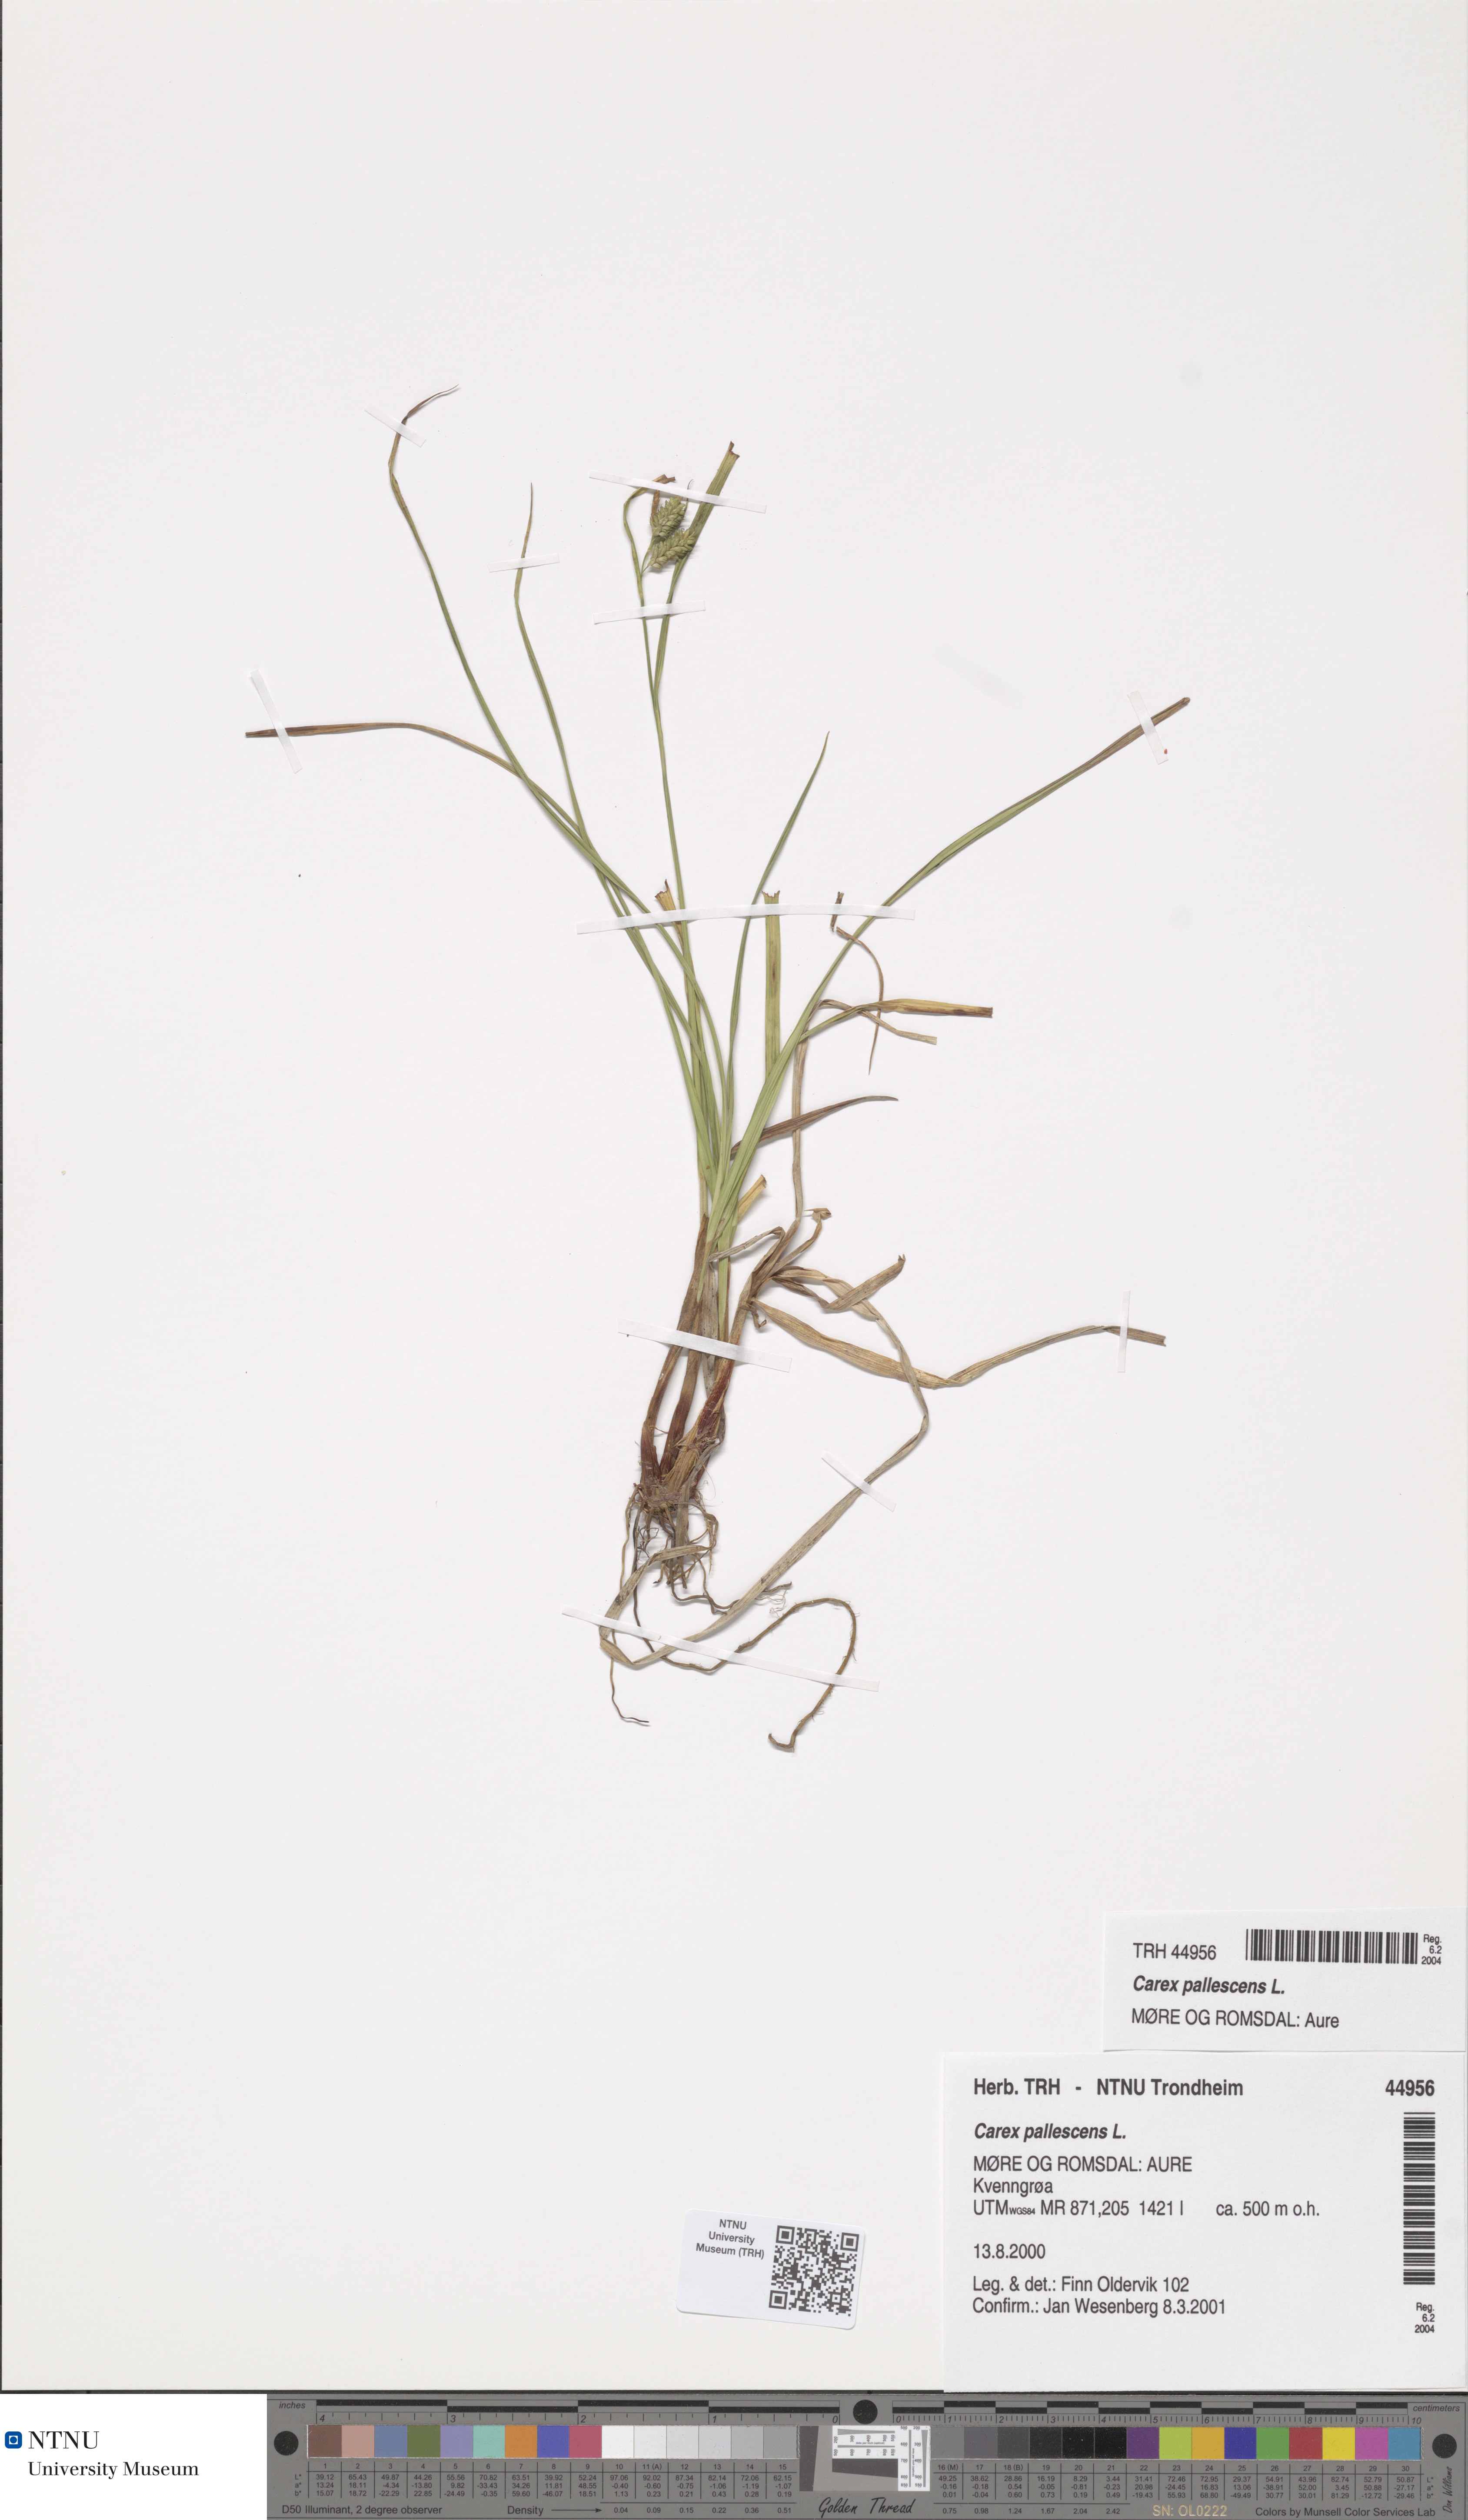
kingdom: Plantae
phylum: Tracheophyta
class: Liliopsida
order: Poales
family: Cyperaceae
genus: Carex
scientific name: Carex pallescens
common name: Pale sedge
